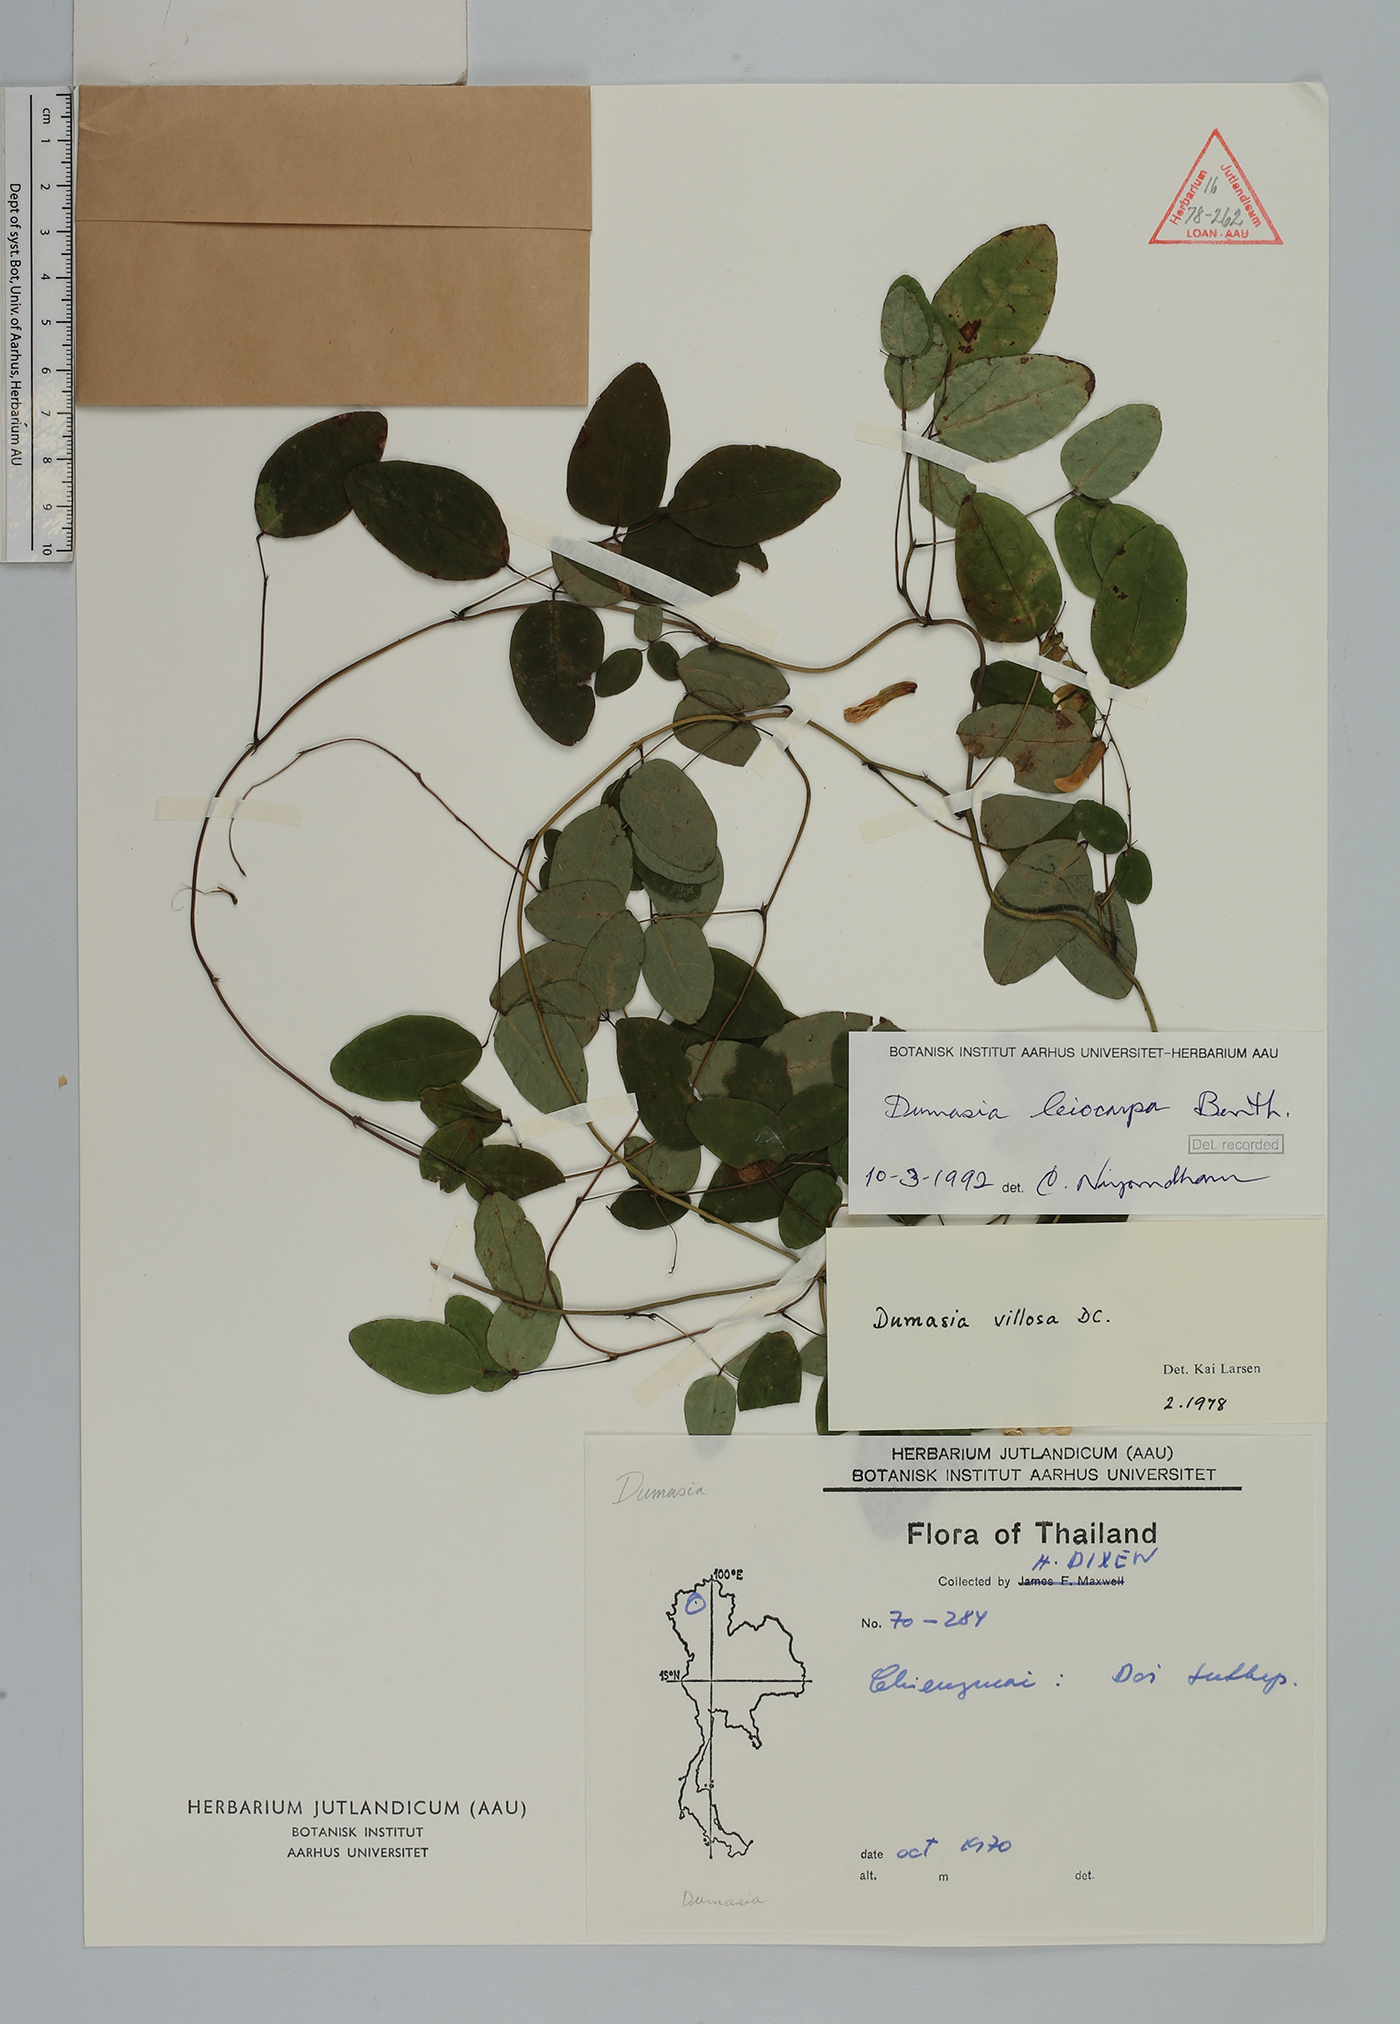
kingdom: Plantae
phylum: Tracheophyta
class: Magnoliopsida
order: Fabales
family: Fabaceae
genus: Dumasia
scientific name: Dumasia villosa
